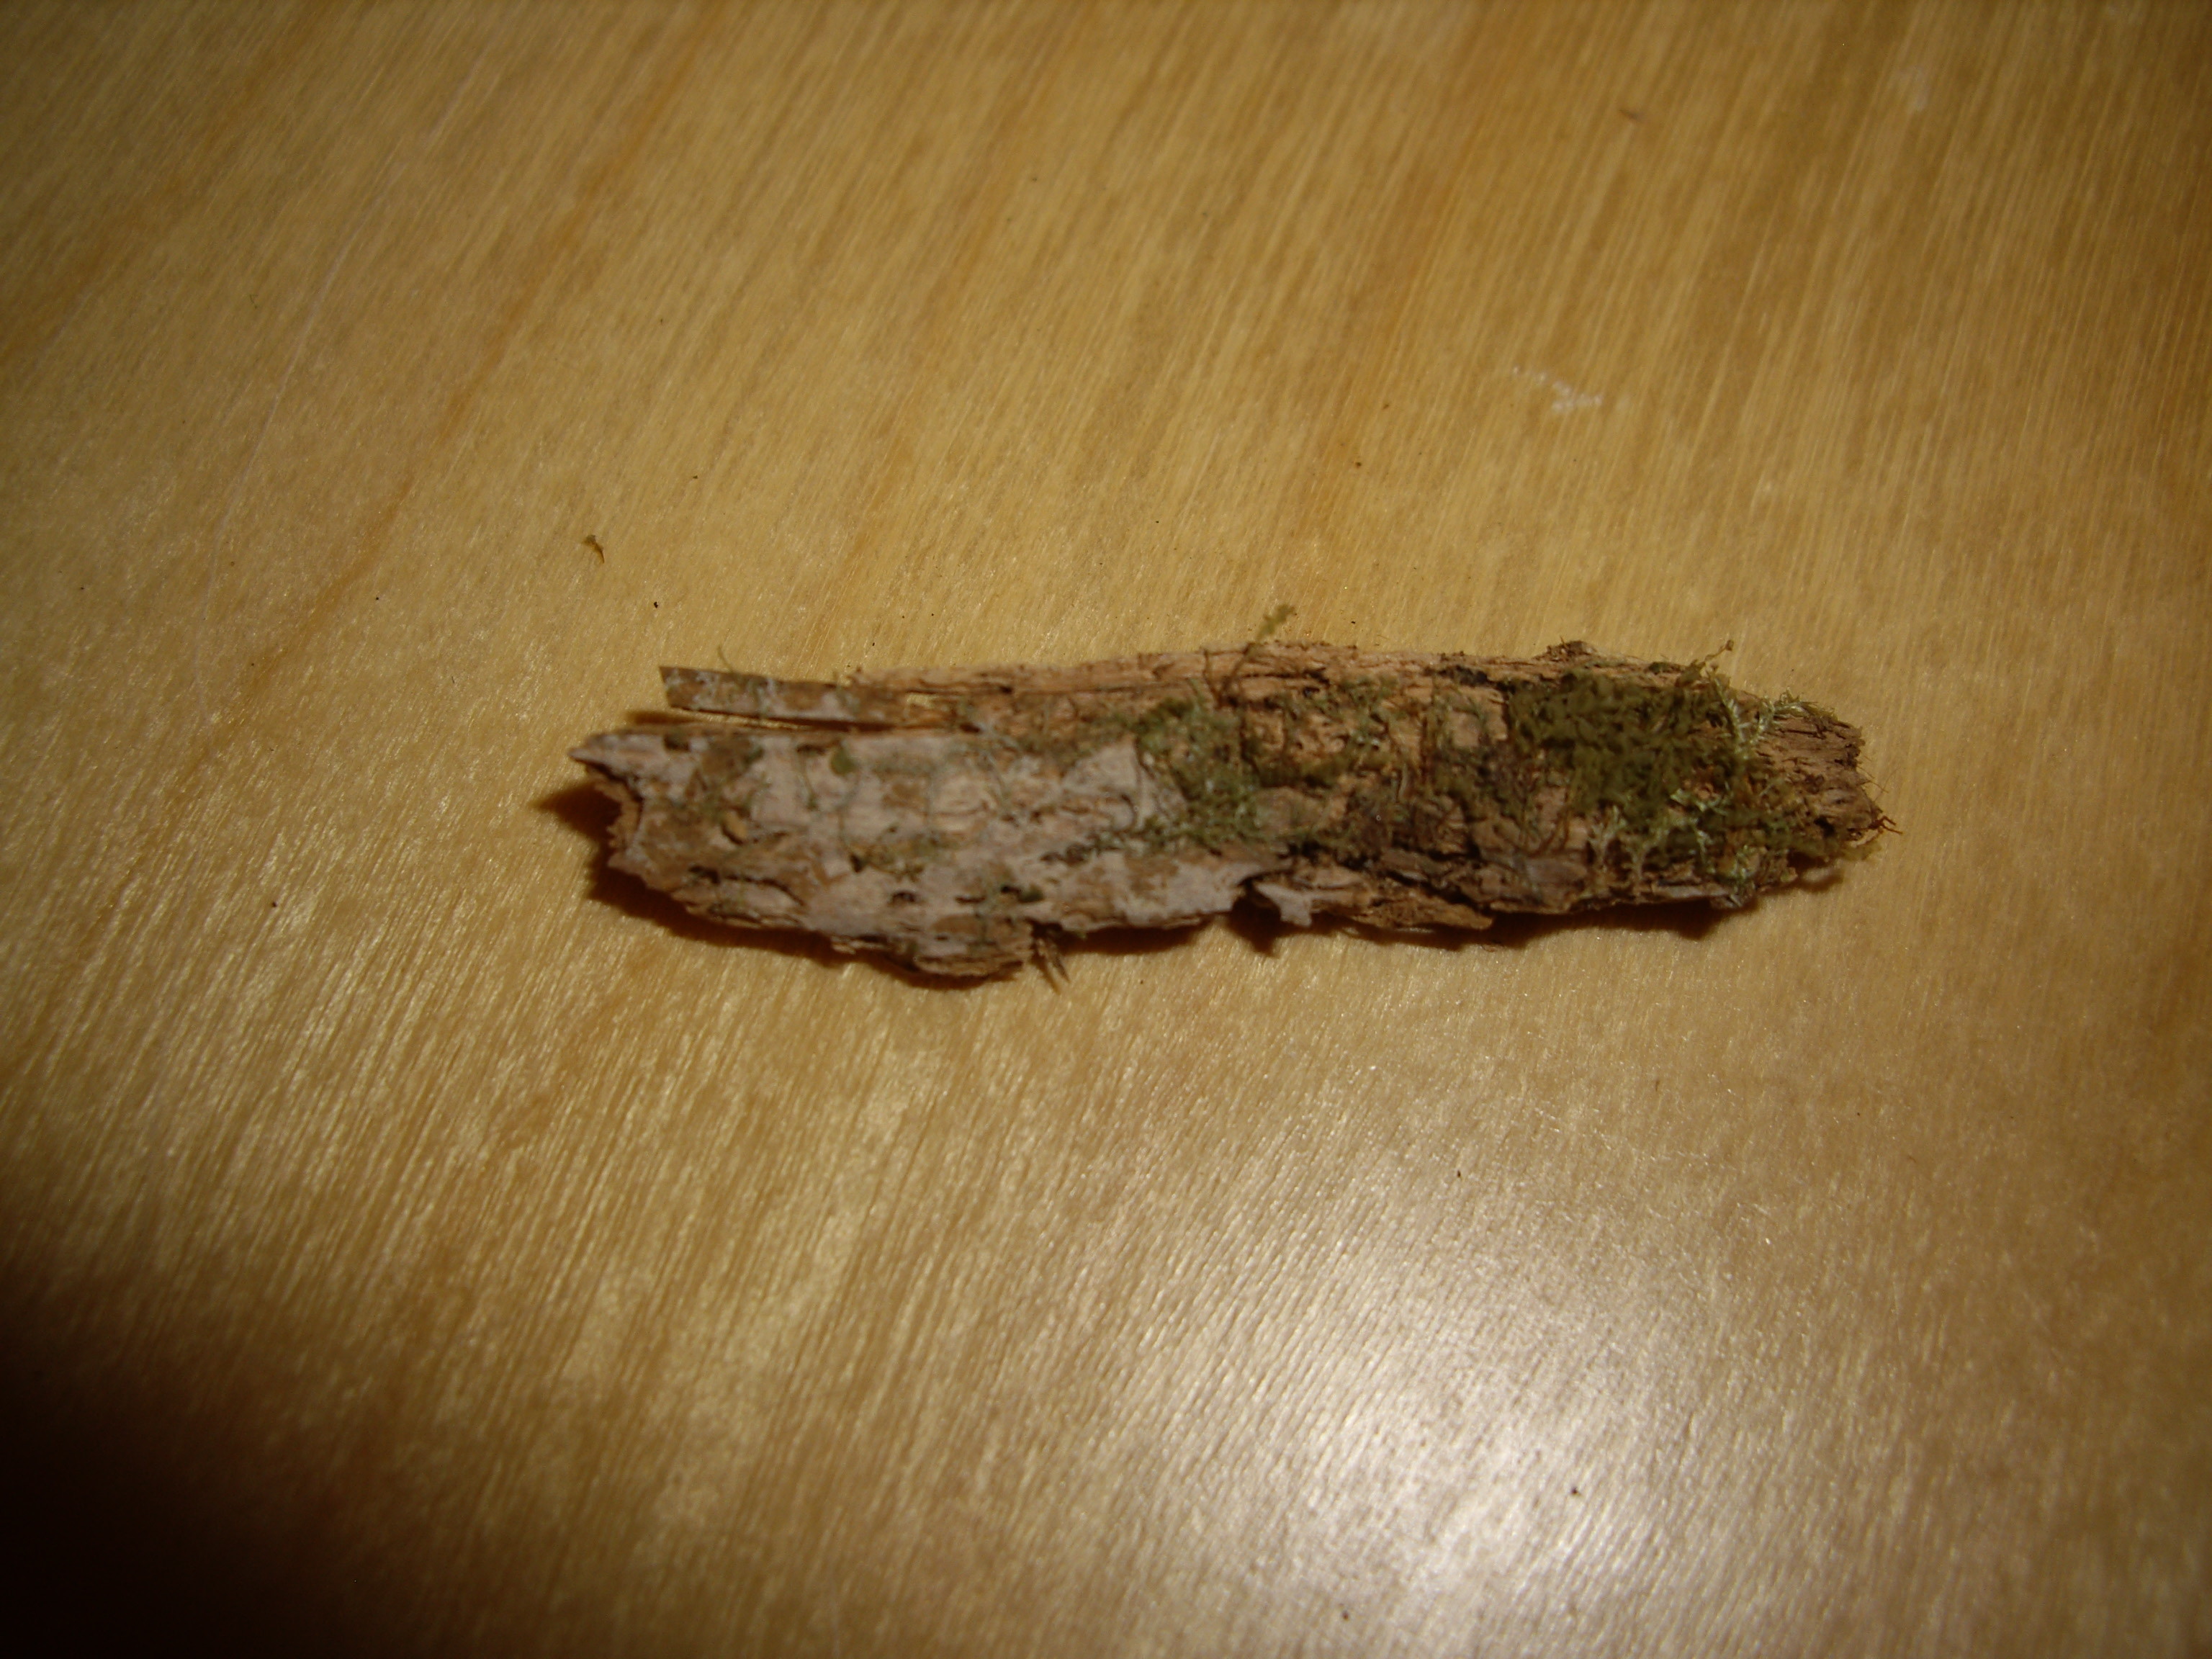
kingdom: Fungi
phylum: Basidiomycota
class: Agaricomycetes
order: Cantharellales
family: Hydnaceae
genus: Paullicorticium
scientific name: Paullicorticium allantosporum
